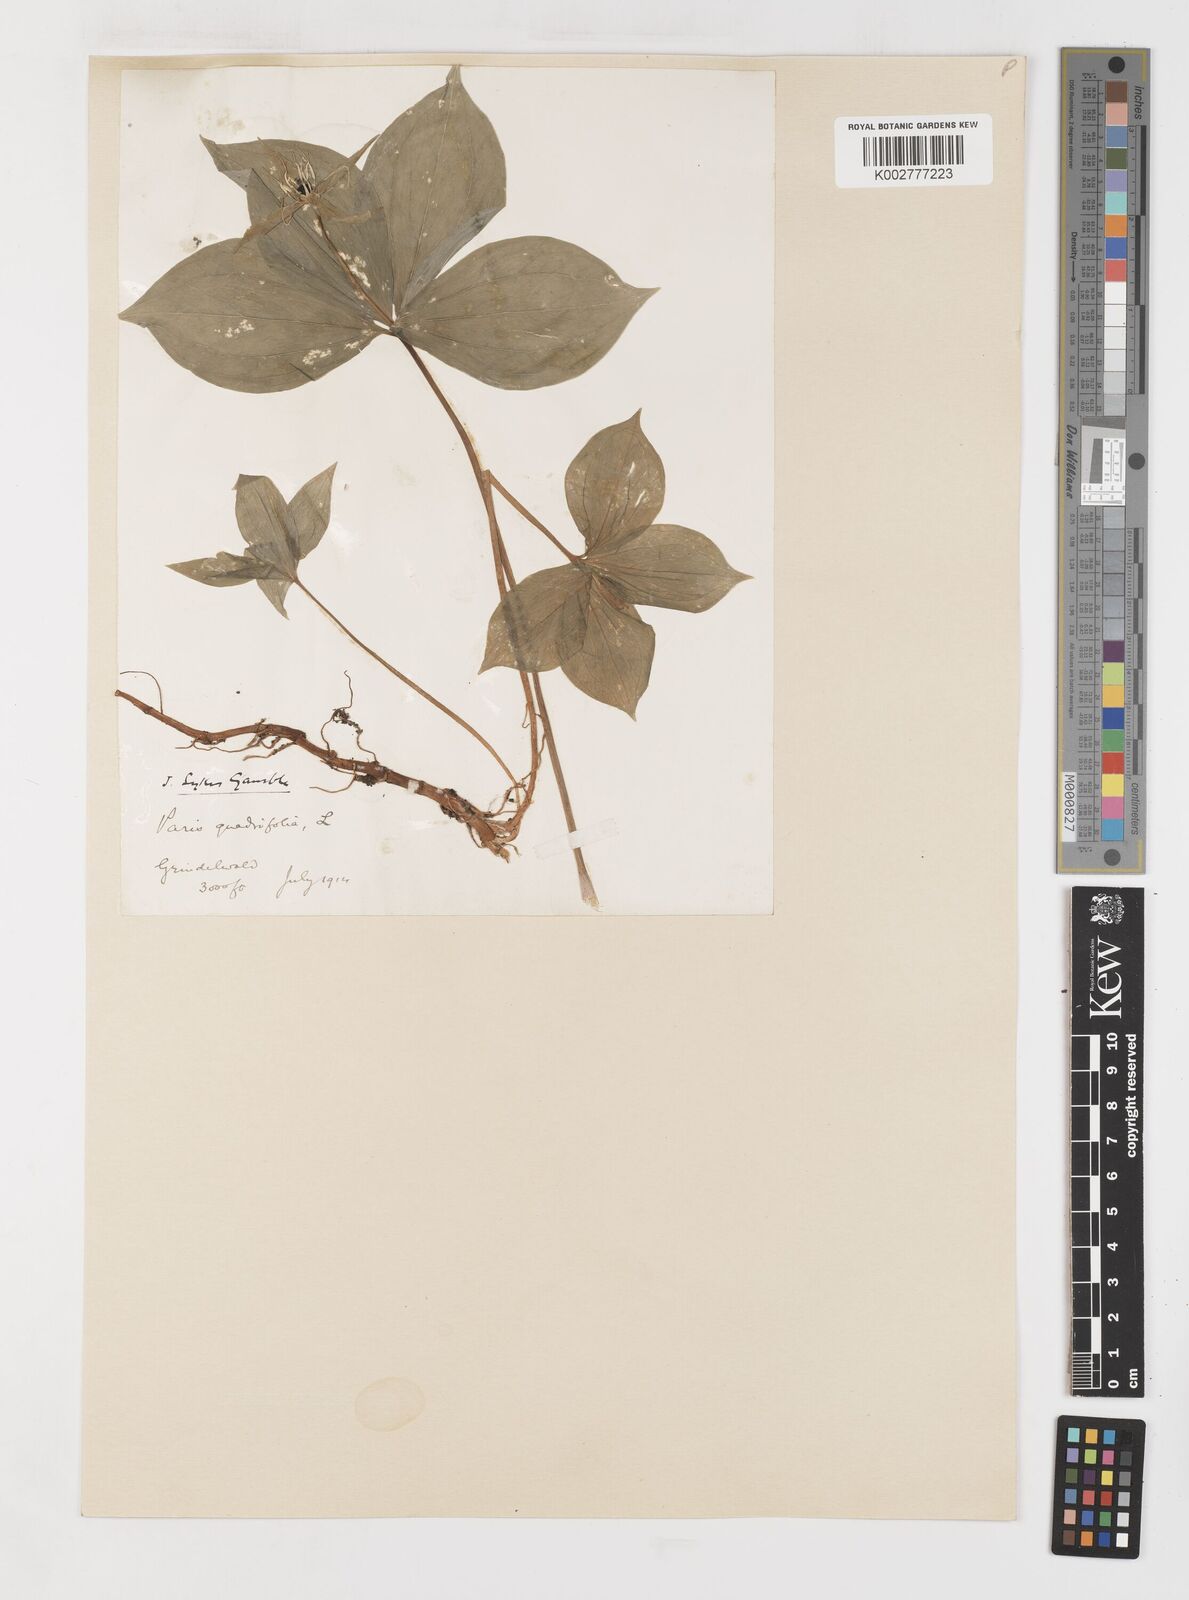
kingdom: Plantae
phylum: Tracheophyta
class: Liliopsida
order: Liliales
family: Melanthiaceae
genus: Paris
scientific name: Paris quadrifolia
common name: Herb-paris
